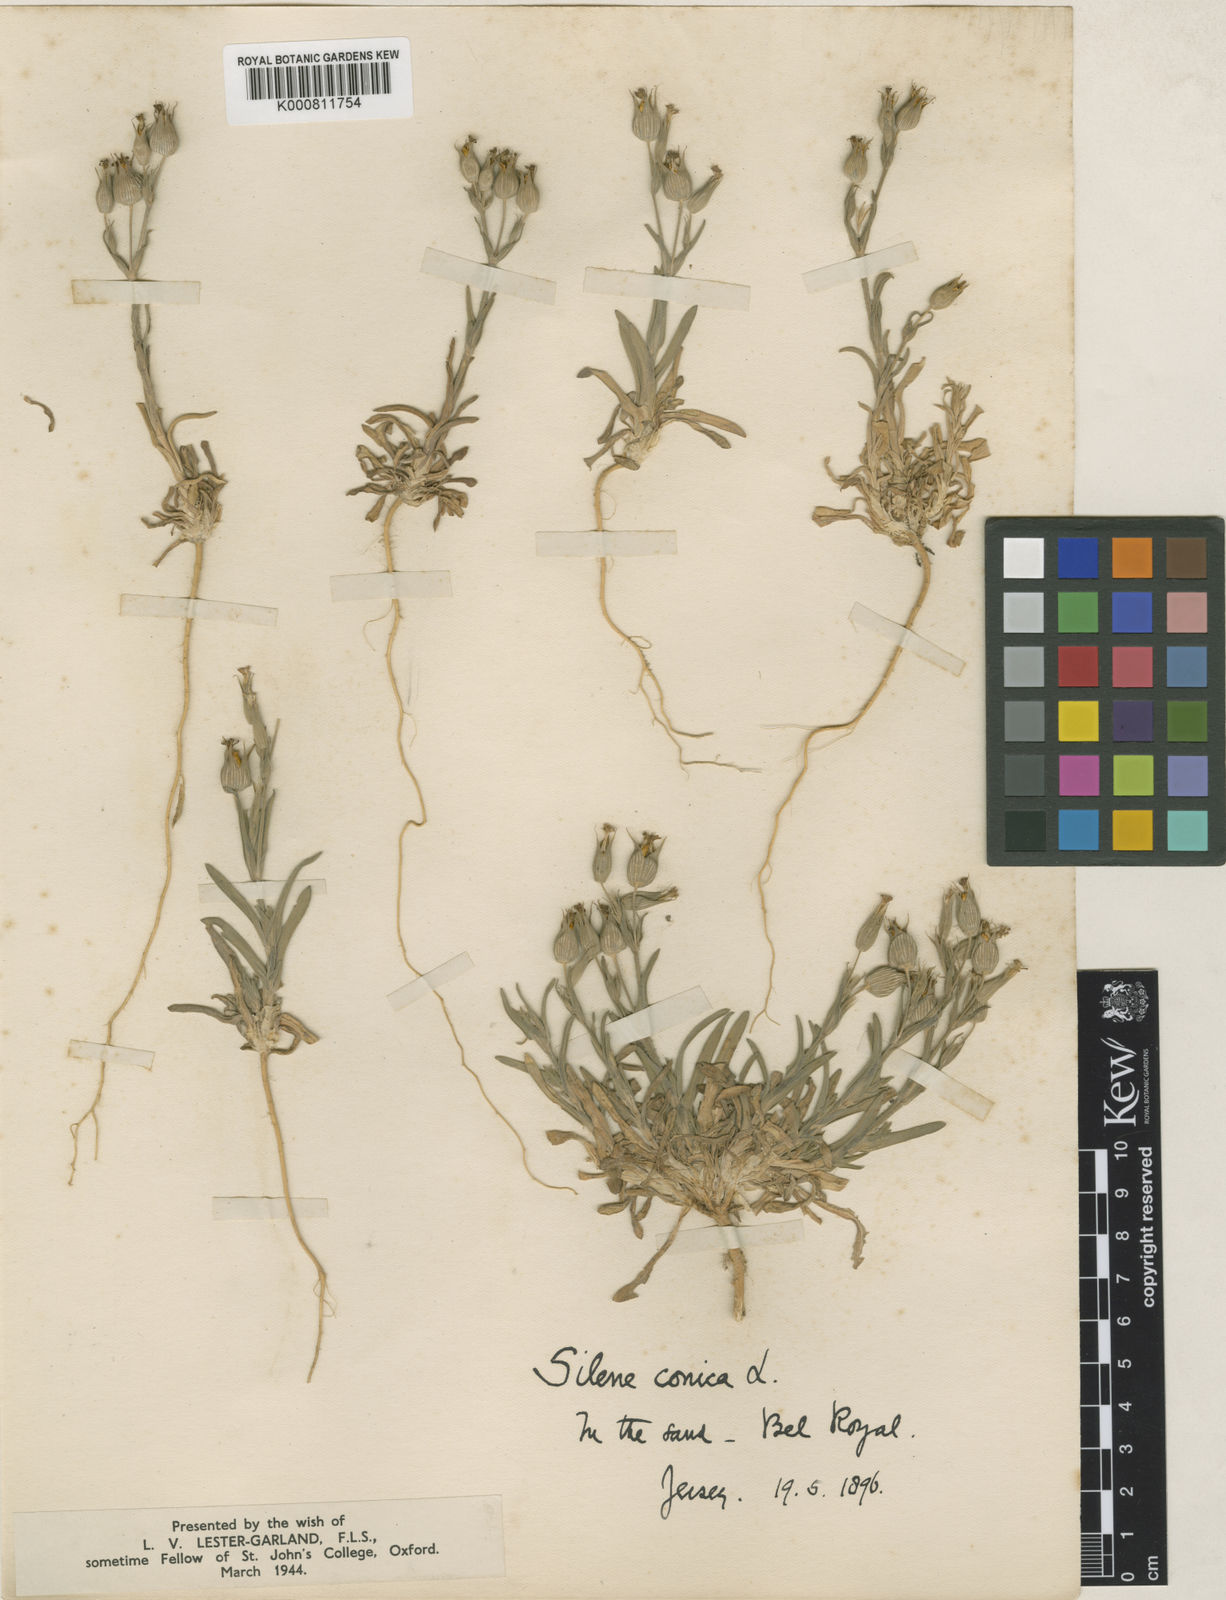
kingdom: Plantae
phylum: Tracheophyta
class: Magnoliopsida
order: Caryophyllales
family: Caryophyllaceae
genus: Silene
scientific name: Silene conica
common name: Sand catchfly
